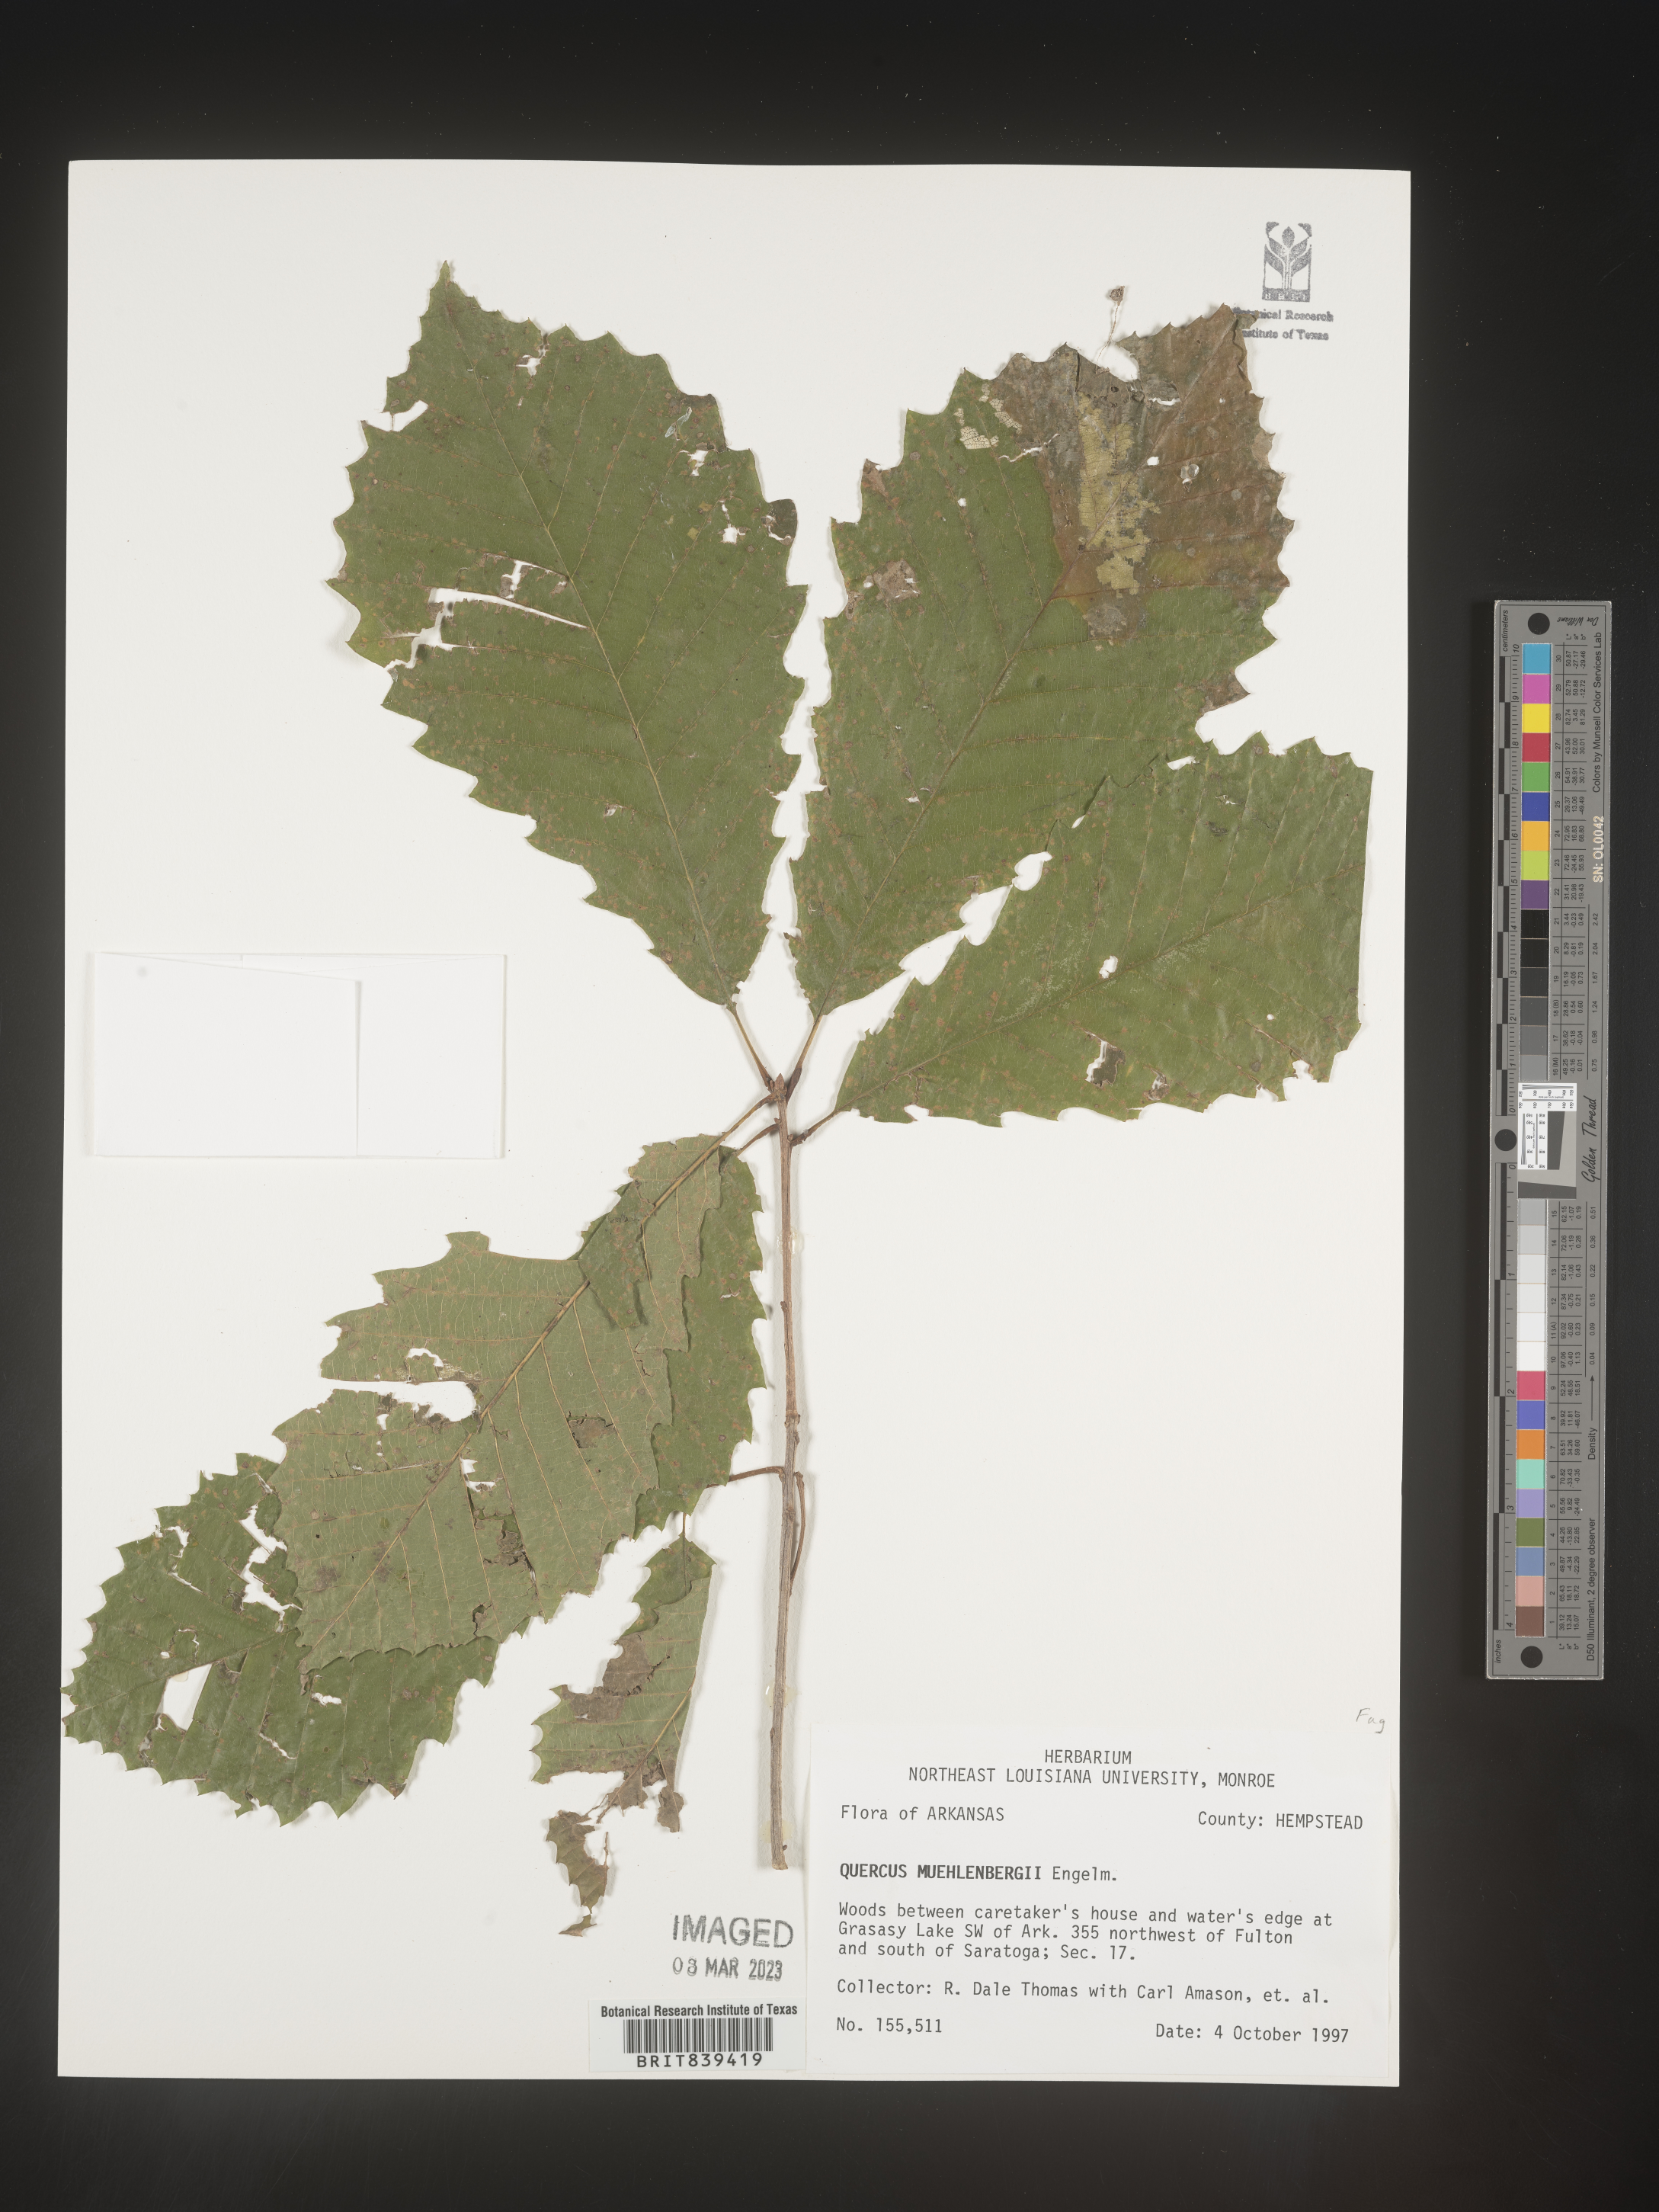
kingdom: Plantae
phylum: Tracheophyta
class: Magnoliopsida
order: Fagales
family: Fagaceae
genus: Quercus
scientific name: Quercus muehlenbergii
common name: Chinkapin oak
